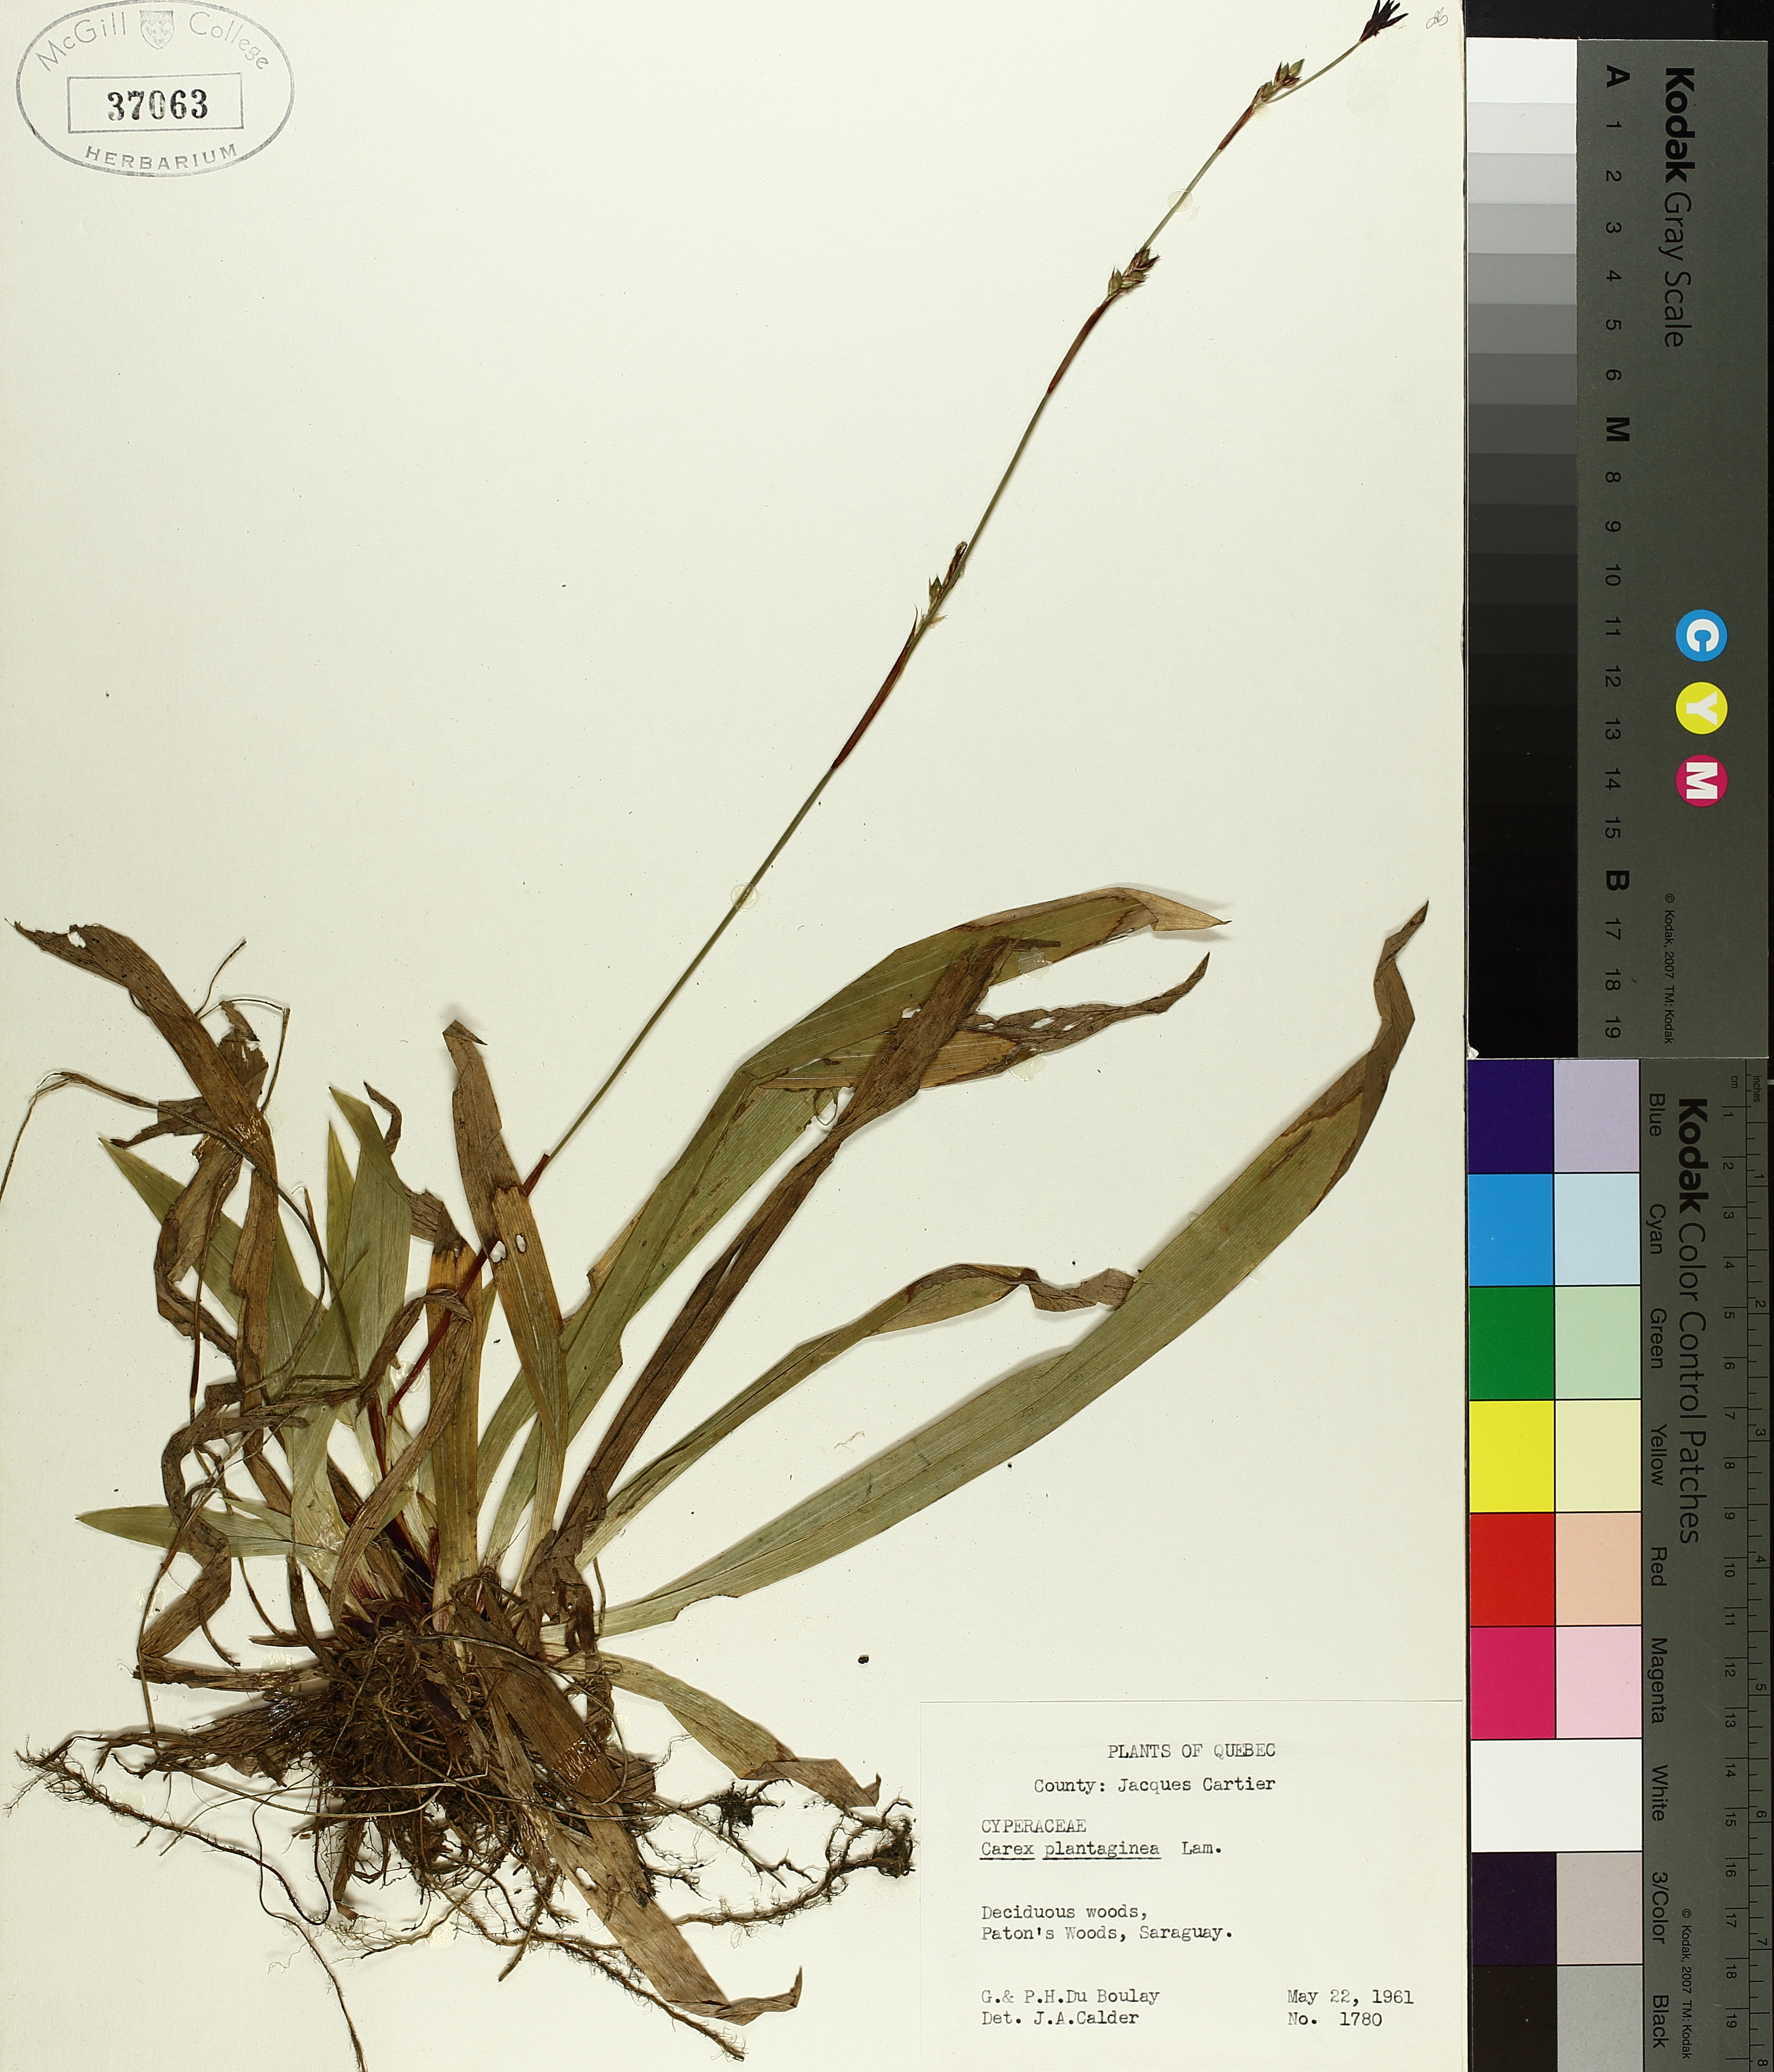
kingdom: Plantae
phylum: Tracheophyta
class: Liliopsida
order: Poales
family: Cyperaceae
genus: Carex
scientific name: Carex plantaginea
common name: Plantain-leaved sedge
